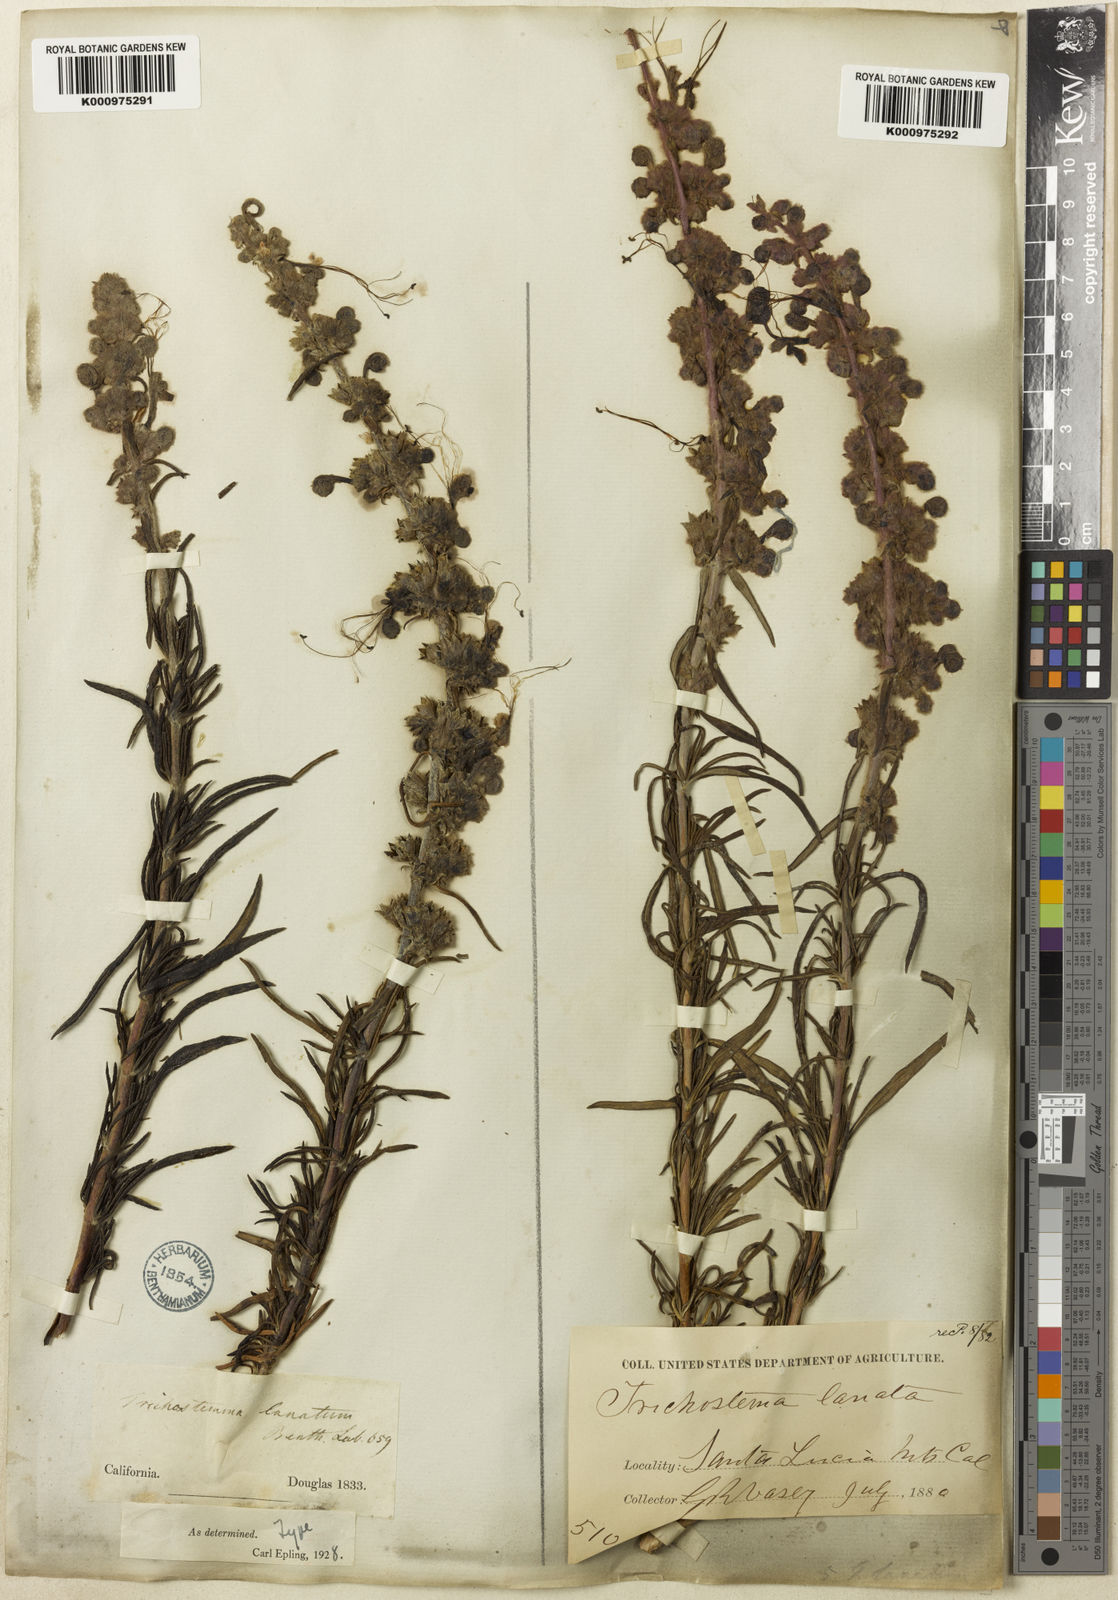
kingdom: Plantae
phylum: Tracheophyta
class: Magnoliopsida
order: Lamiales
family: Lamiaceae
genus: Trichostema
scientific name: Trichostema lanatum
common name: Woolly bluecurls
